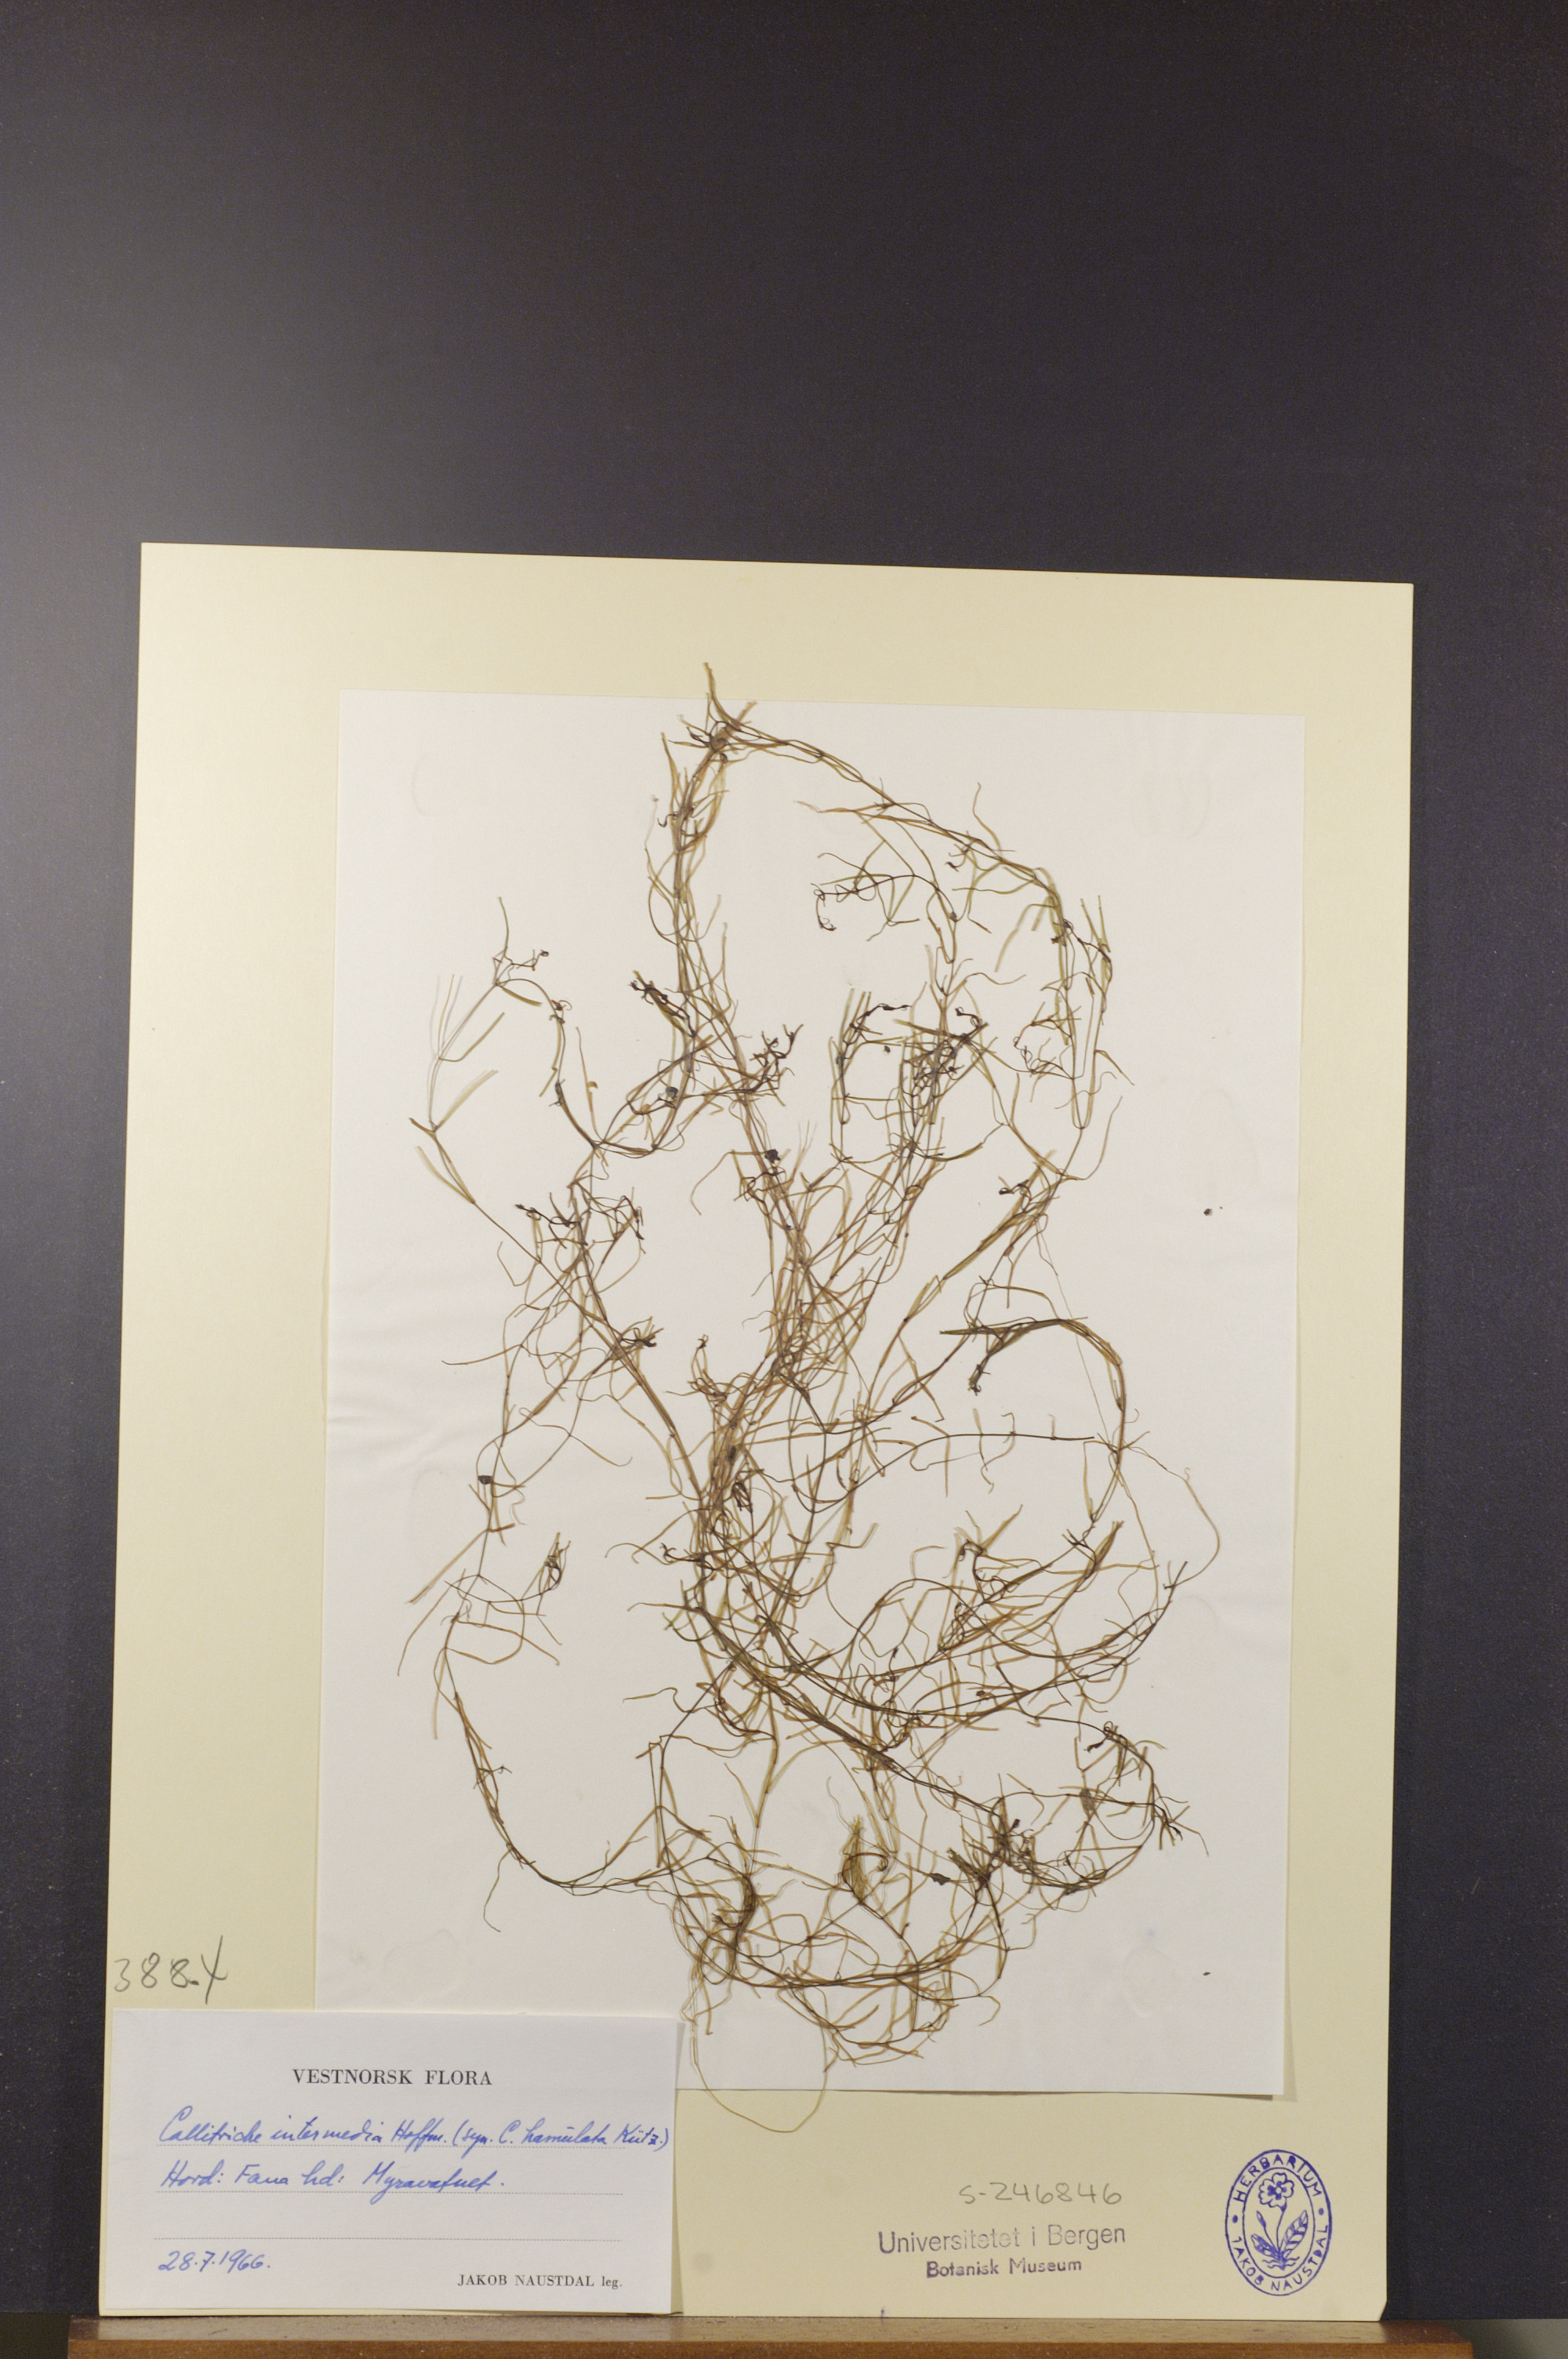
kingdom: Plantae
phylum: Tracheophyta
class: Magnoliopsida
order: Lamiales
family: Plantaginaceae
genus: Callitriche
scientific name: Callitriche hamulata
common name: Intermediate water-starwort
